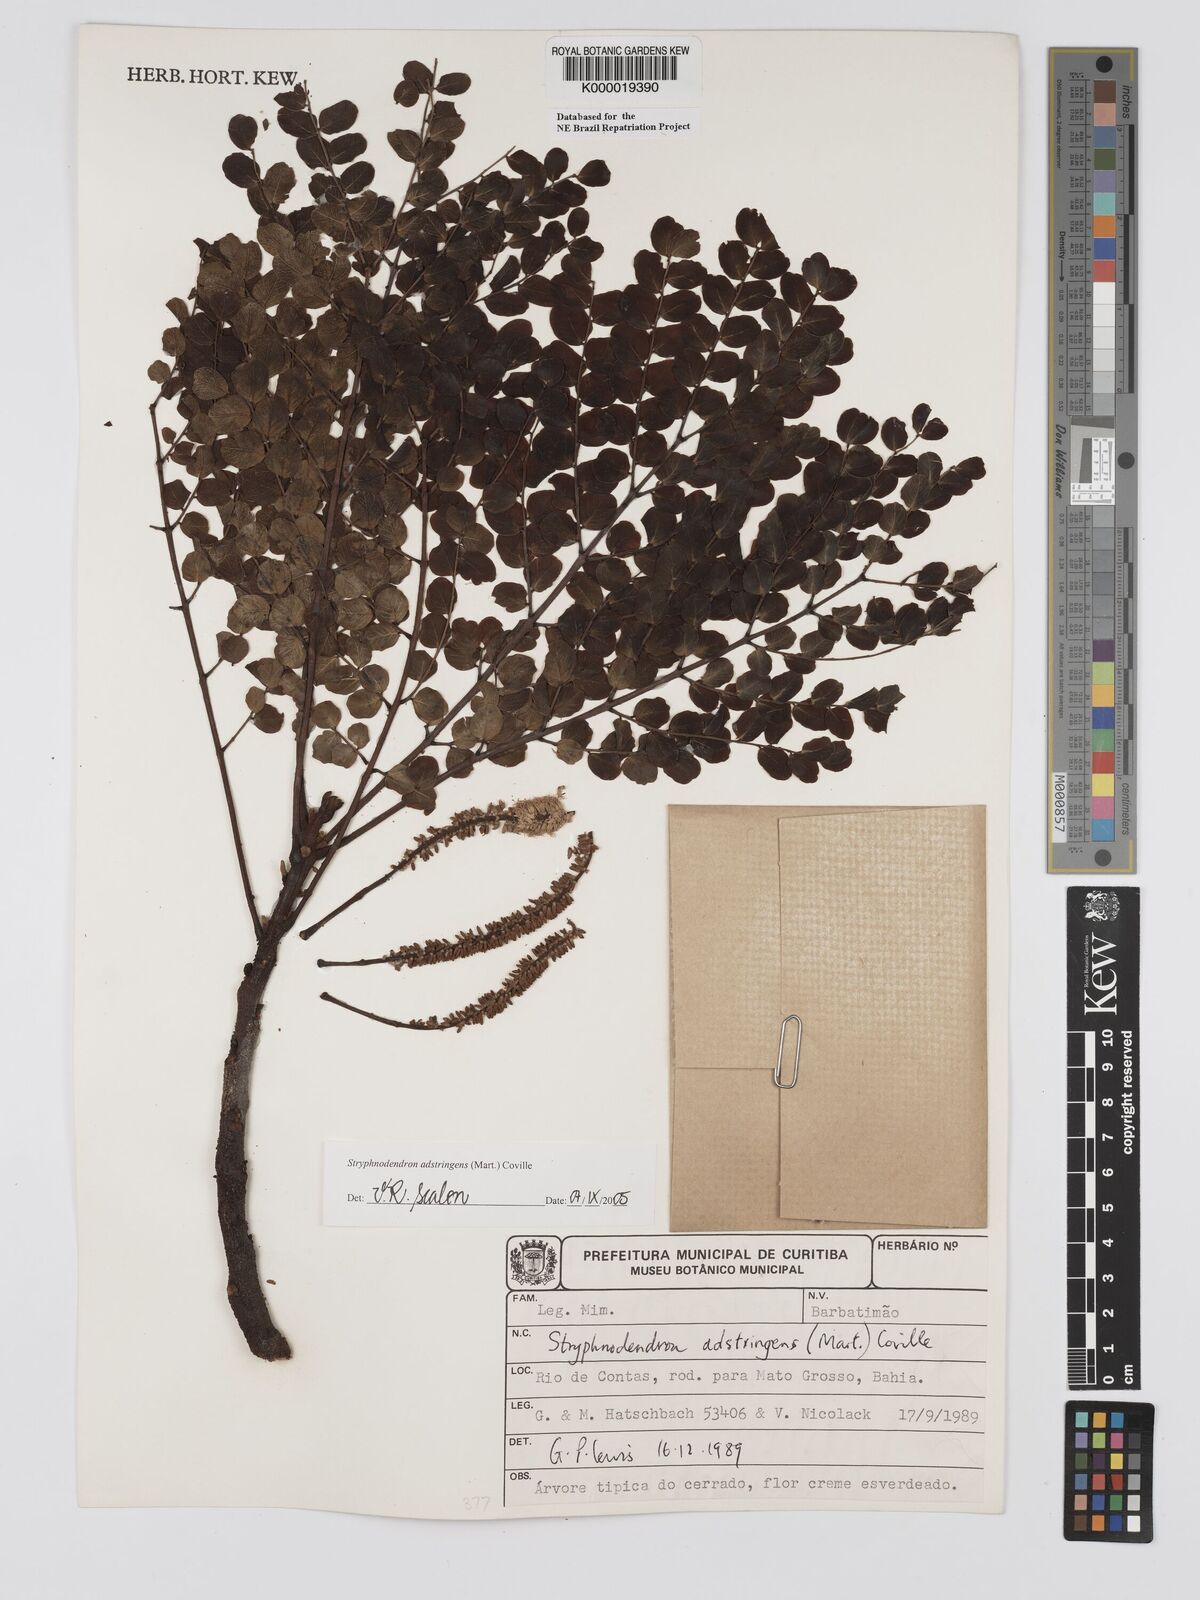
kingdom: Plantae
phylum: Tracheophyta
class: Magnoliopsida
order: Fabales
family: Fabaceae
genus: Stryphnodendron
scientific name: Stryphnodendron adstringens
